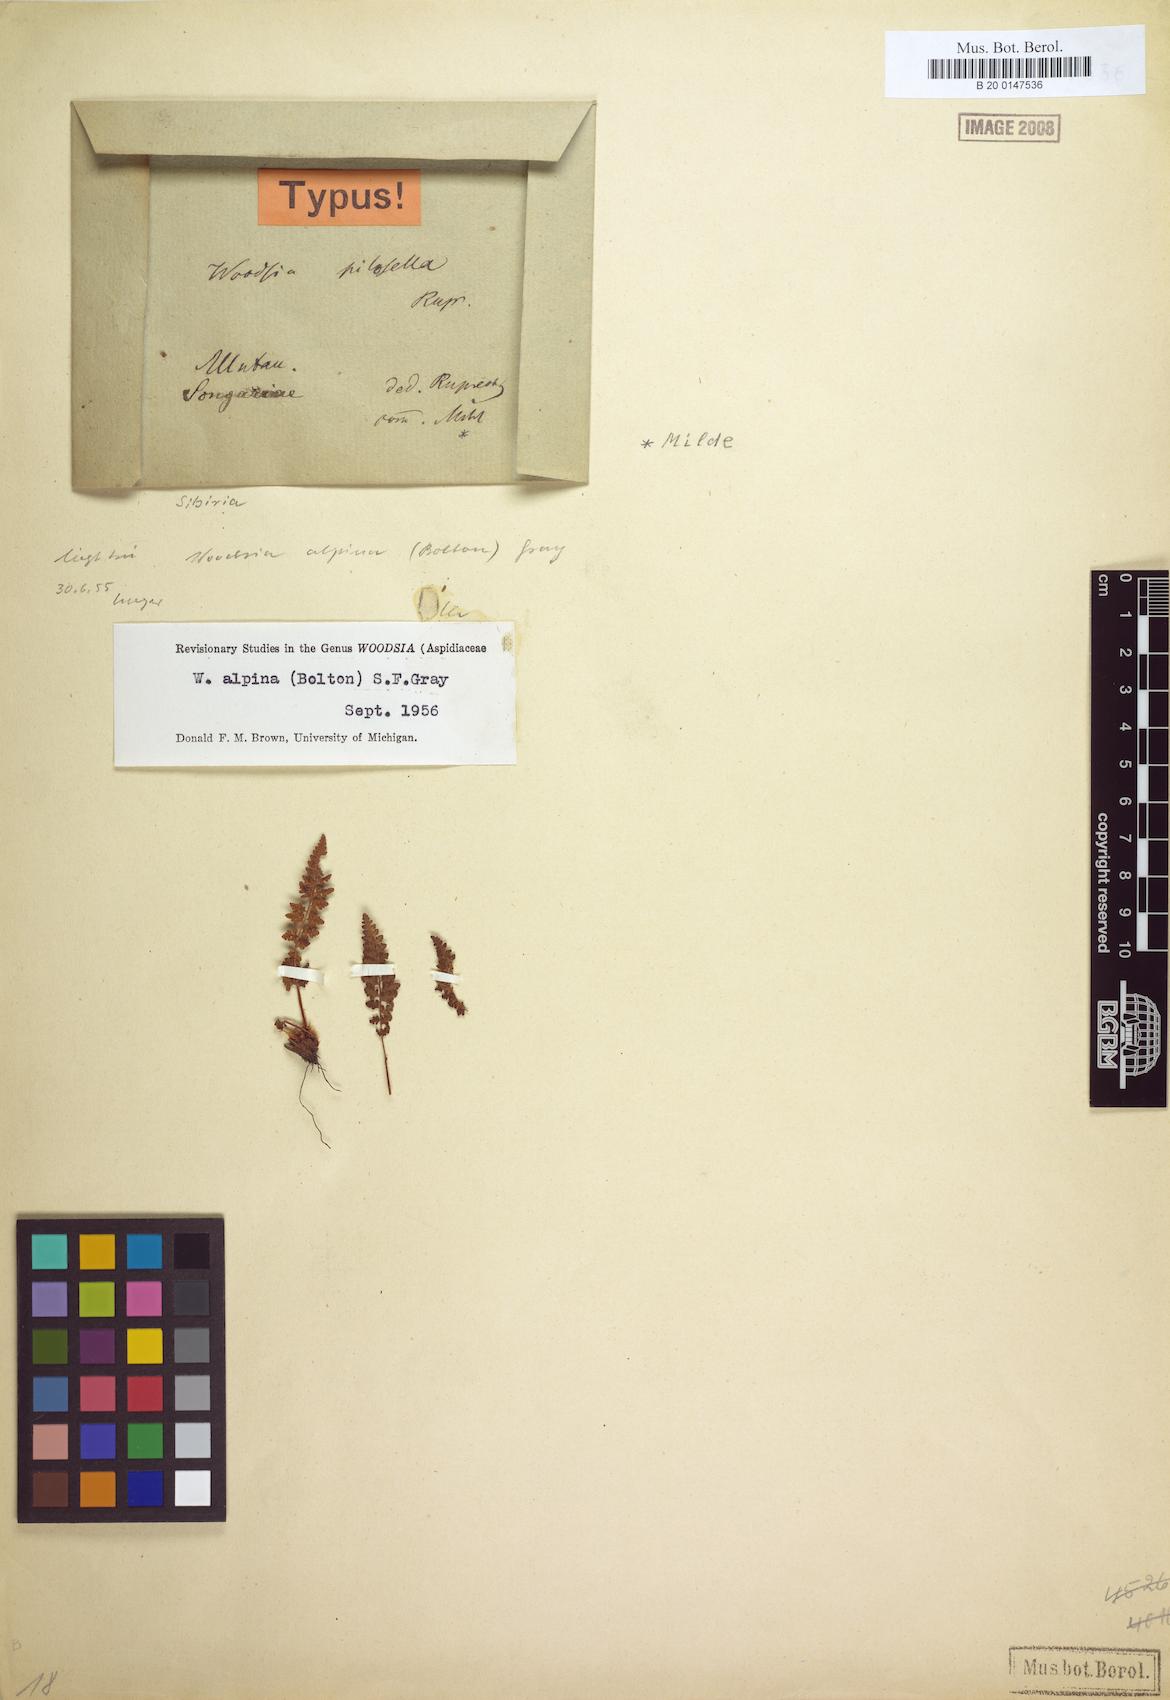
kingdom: Plantae
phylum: Tracheophyta
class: Polypodiopsida
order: Polypodiales
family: Woodsiaceae
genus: Woodsia
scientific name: Woodsia alpina
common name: Alpine woodsia
